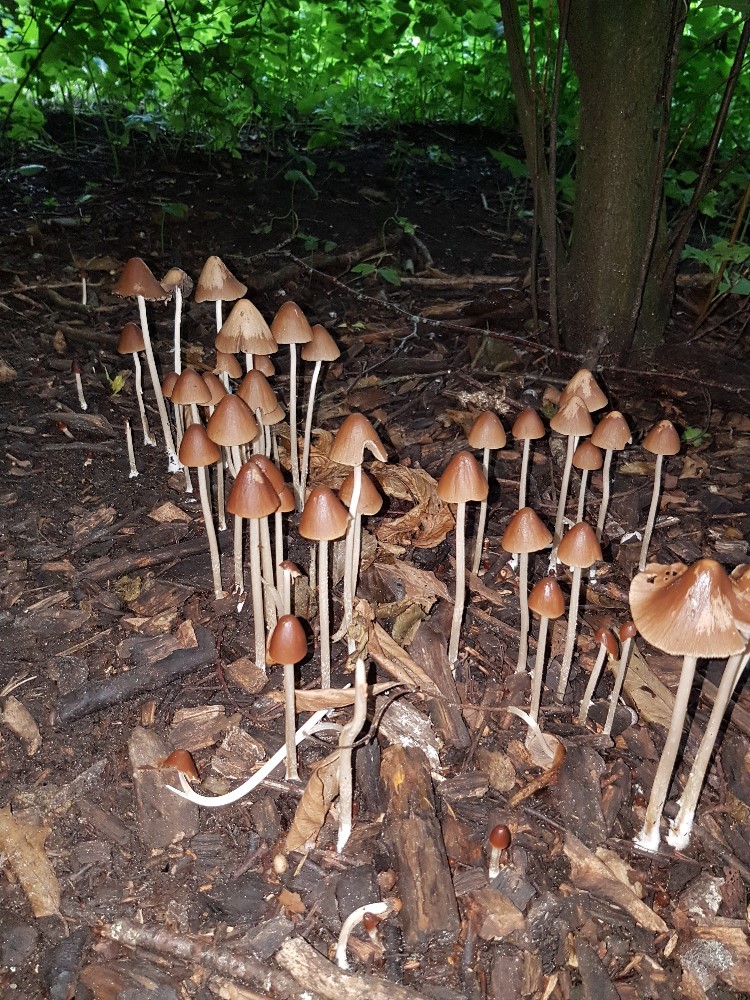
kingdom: Fungi
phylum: Basidiomycota
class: Agaricomycetes
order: Agaricales
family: Psathyrellaceae
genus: Parasola
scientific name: Parasola conopilea
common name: kegle-hjulhat
